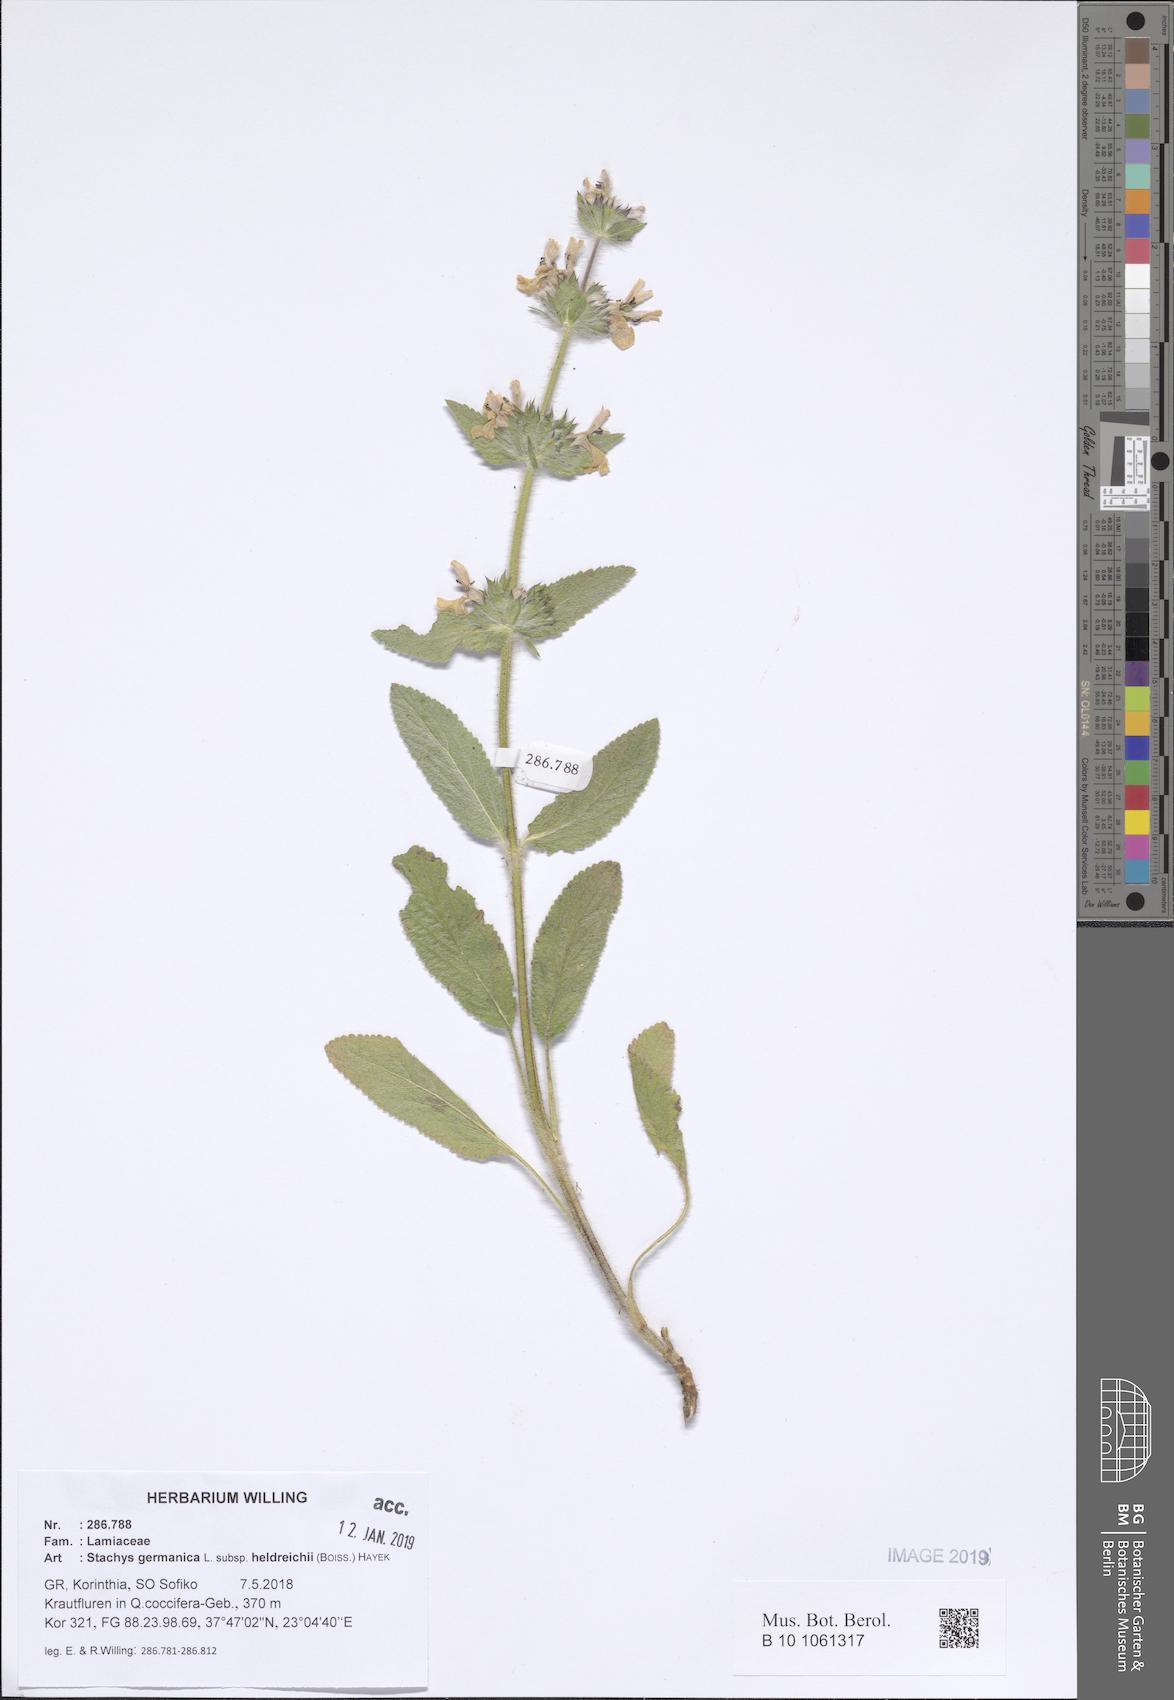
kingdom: Plantae
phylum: Tracheophyta
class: Magnoliopsida
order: Lamiales
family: Lamiaceae
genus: Stachys
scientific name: Stachys germanica
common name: Downy woundwort
